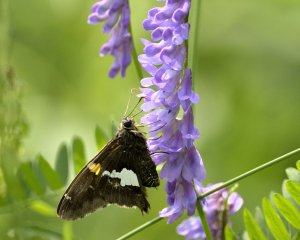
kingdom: Animalia
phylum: Arthropoda
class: Insecta
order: Lepidoptera
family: Hesperiidae
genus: Epargyreus
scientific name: Epargyreus clarus
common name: Silver-spotted Skipper
